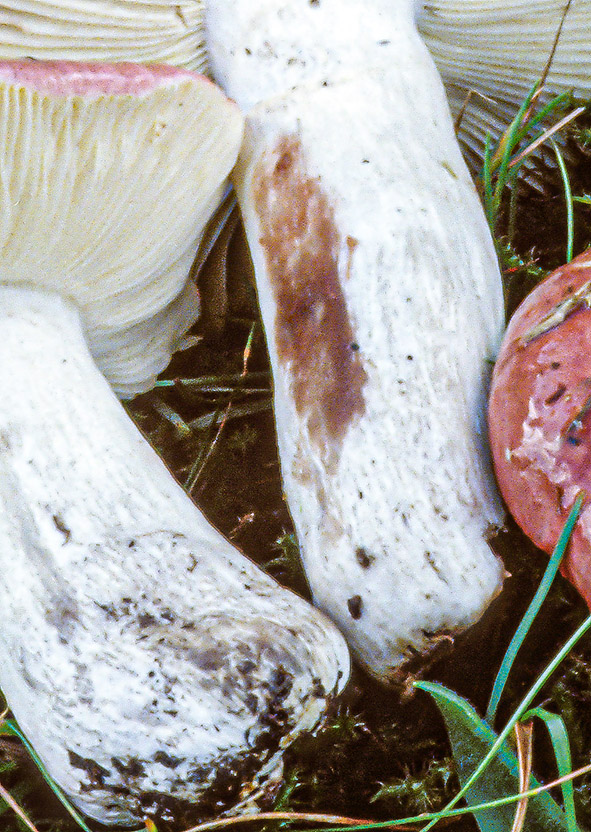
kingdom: Fungi
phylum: Basidiomycota
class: Agaricomycetes
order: Russulales
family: Russulaceae
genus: Russula
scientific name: Russula seperina
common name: rødmende skørhat
